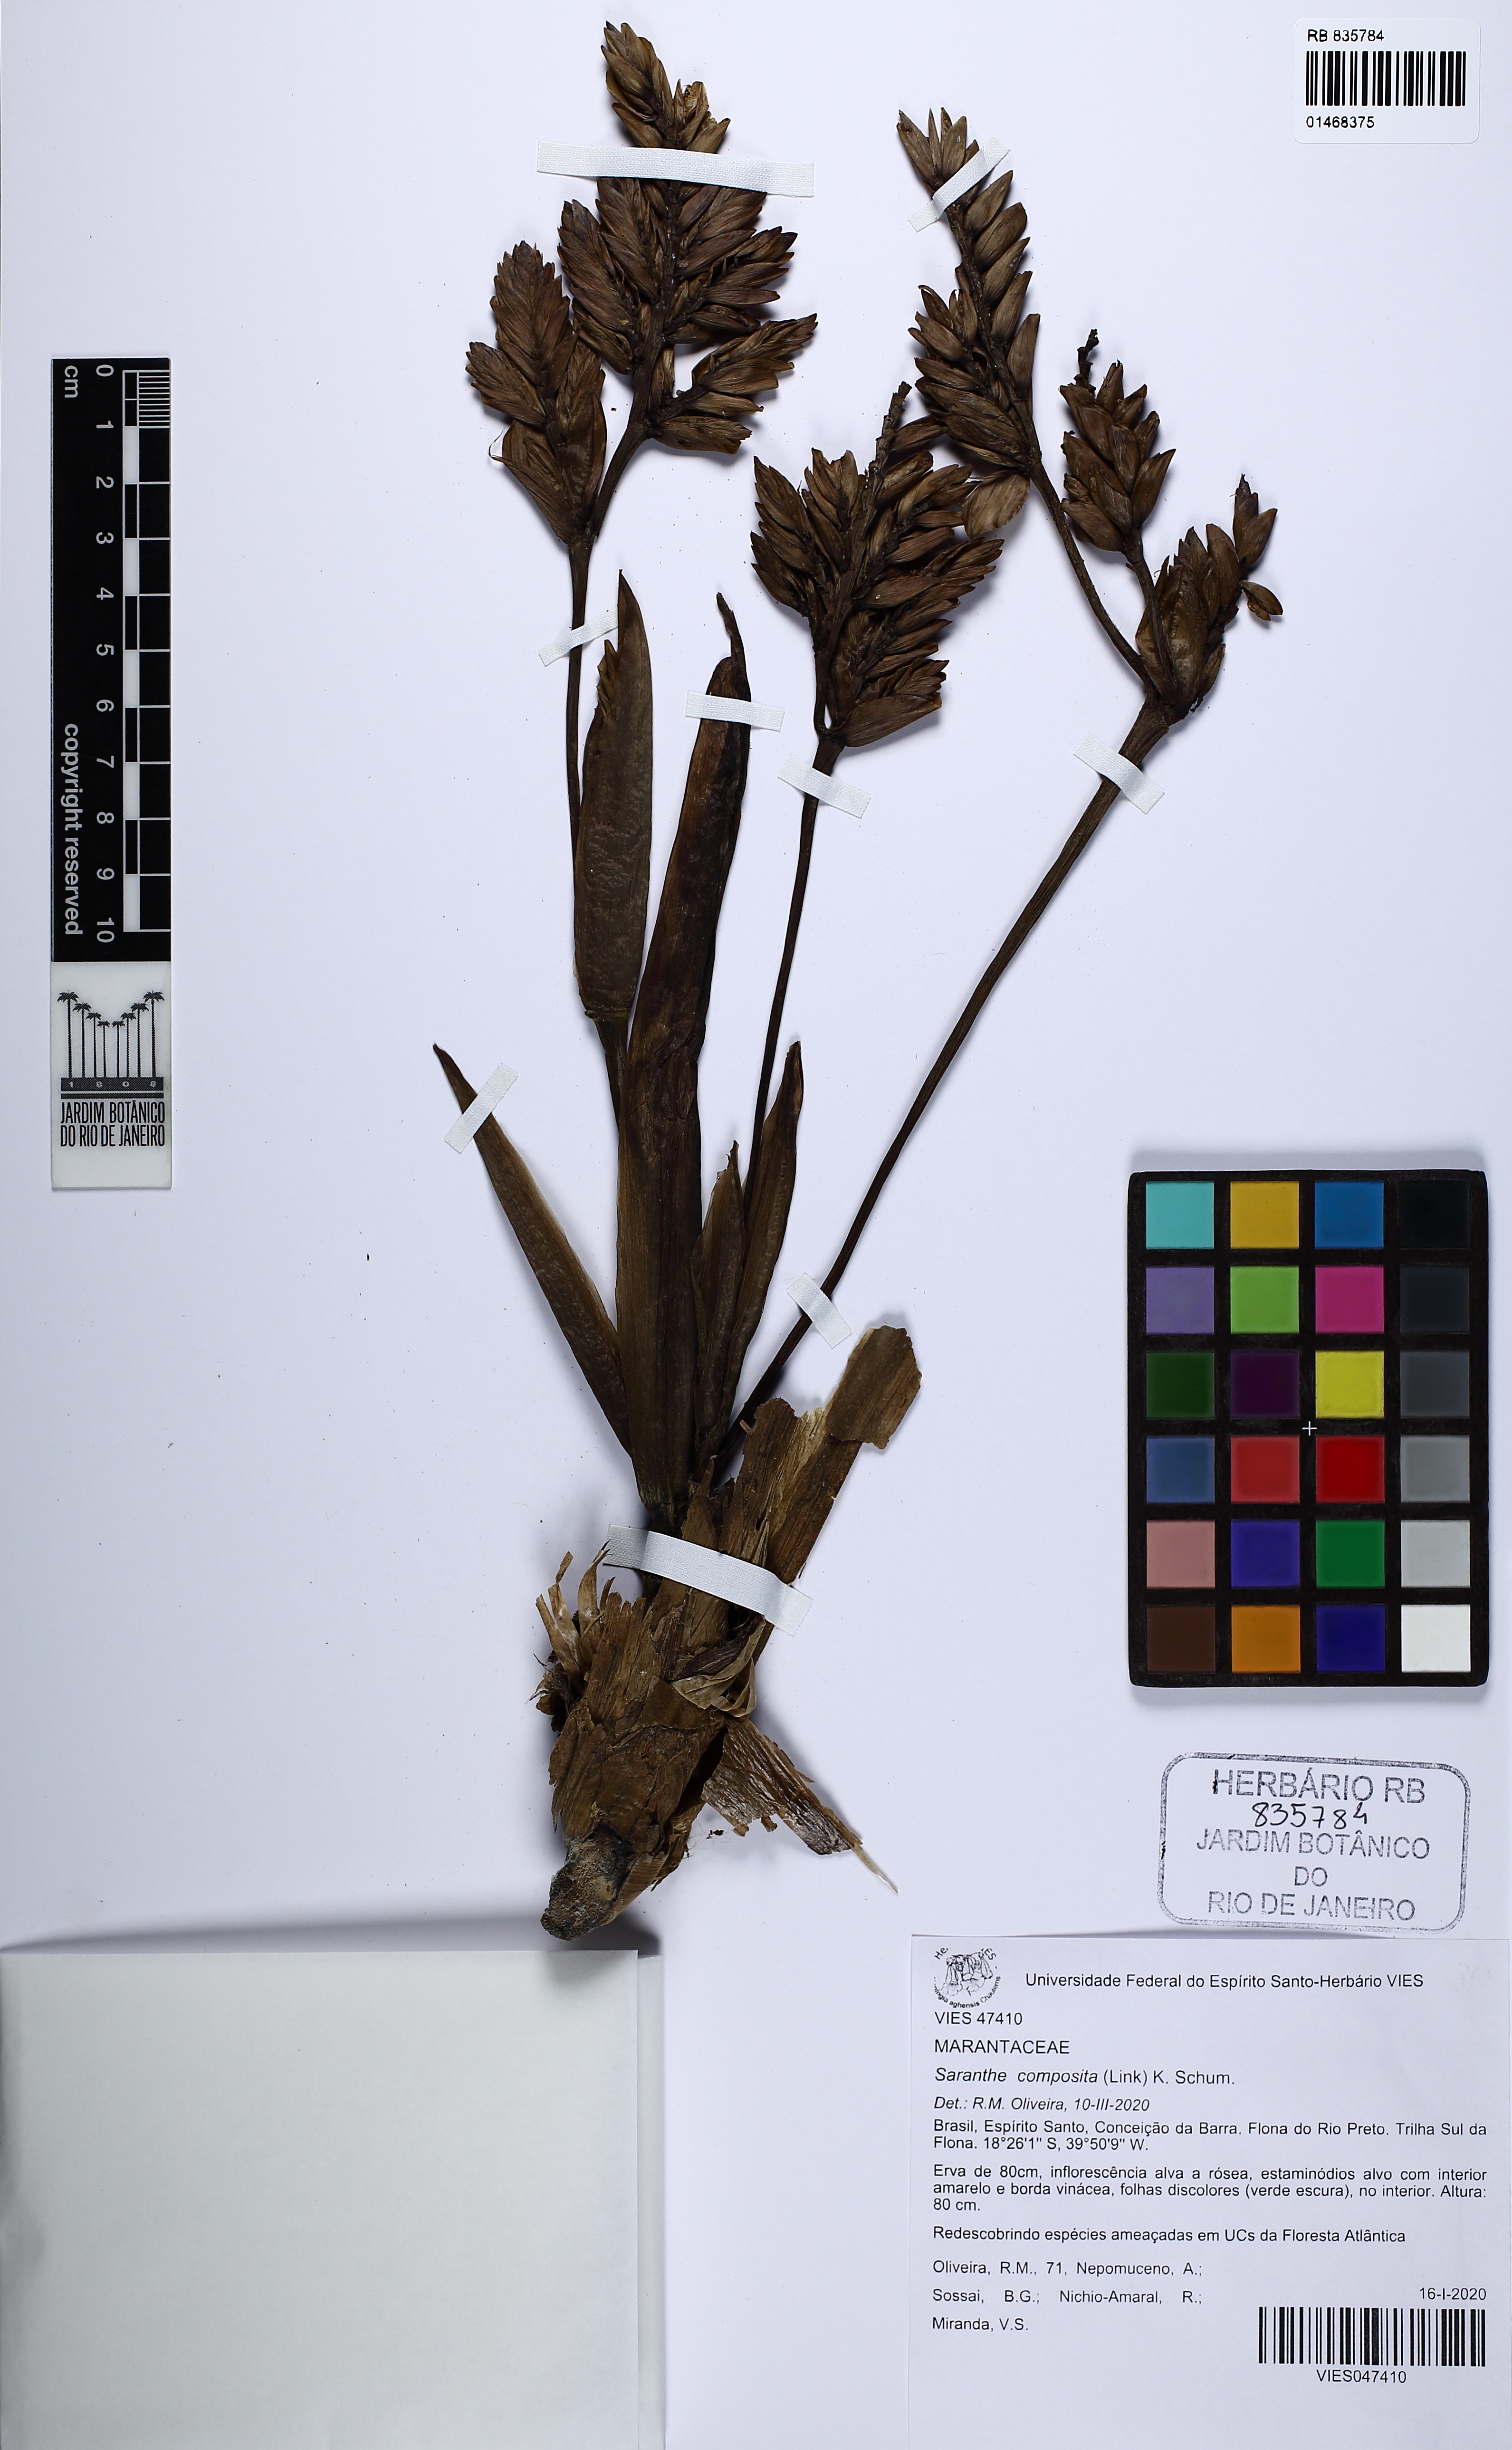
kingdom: Plantae
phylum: Tracheophyta
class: Liliopsida
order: Zingiberales
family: Marantaceae
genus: Saranthe
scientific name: Saranthe composita
